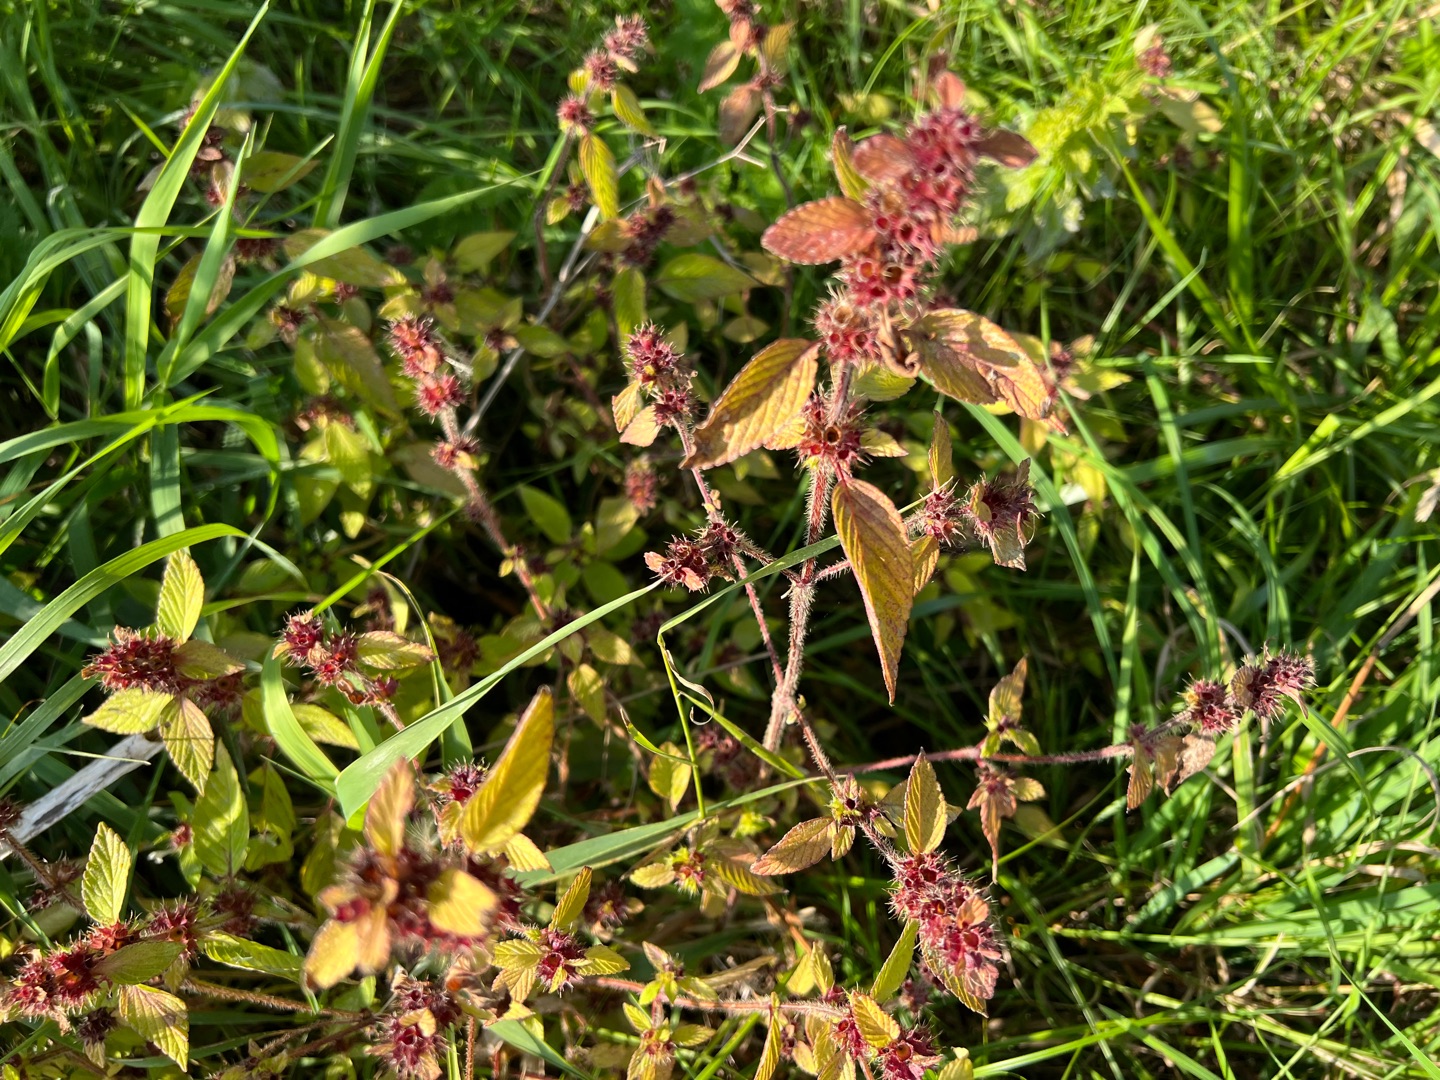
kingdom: Plantae
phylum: Tracheophyta
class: Magnoliopsida
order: Lamiales
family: Lamiaceae
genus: Galeopsis
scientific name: Galeopsis
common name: Hanekroslægten
